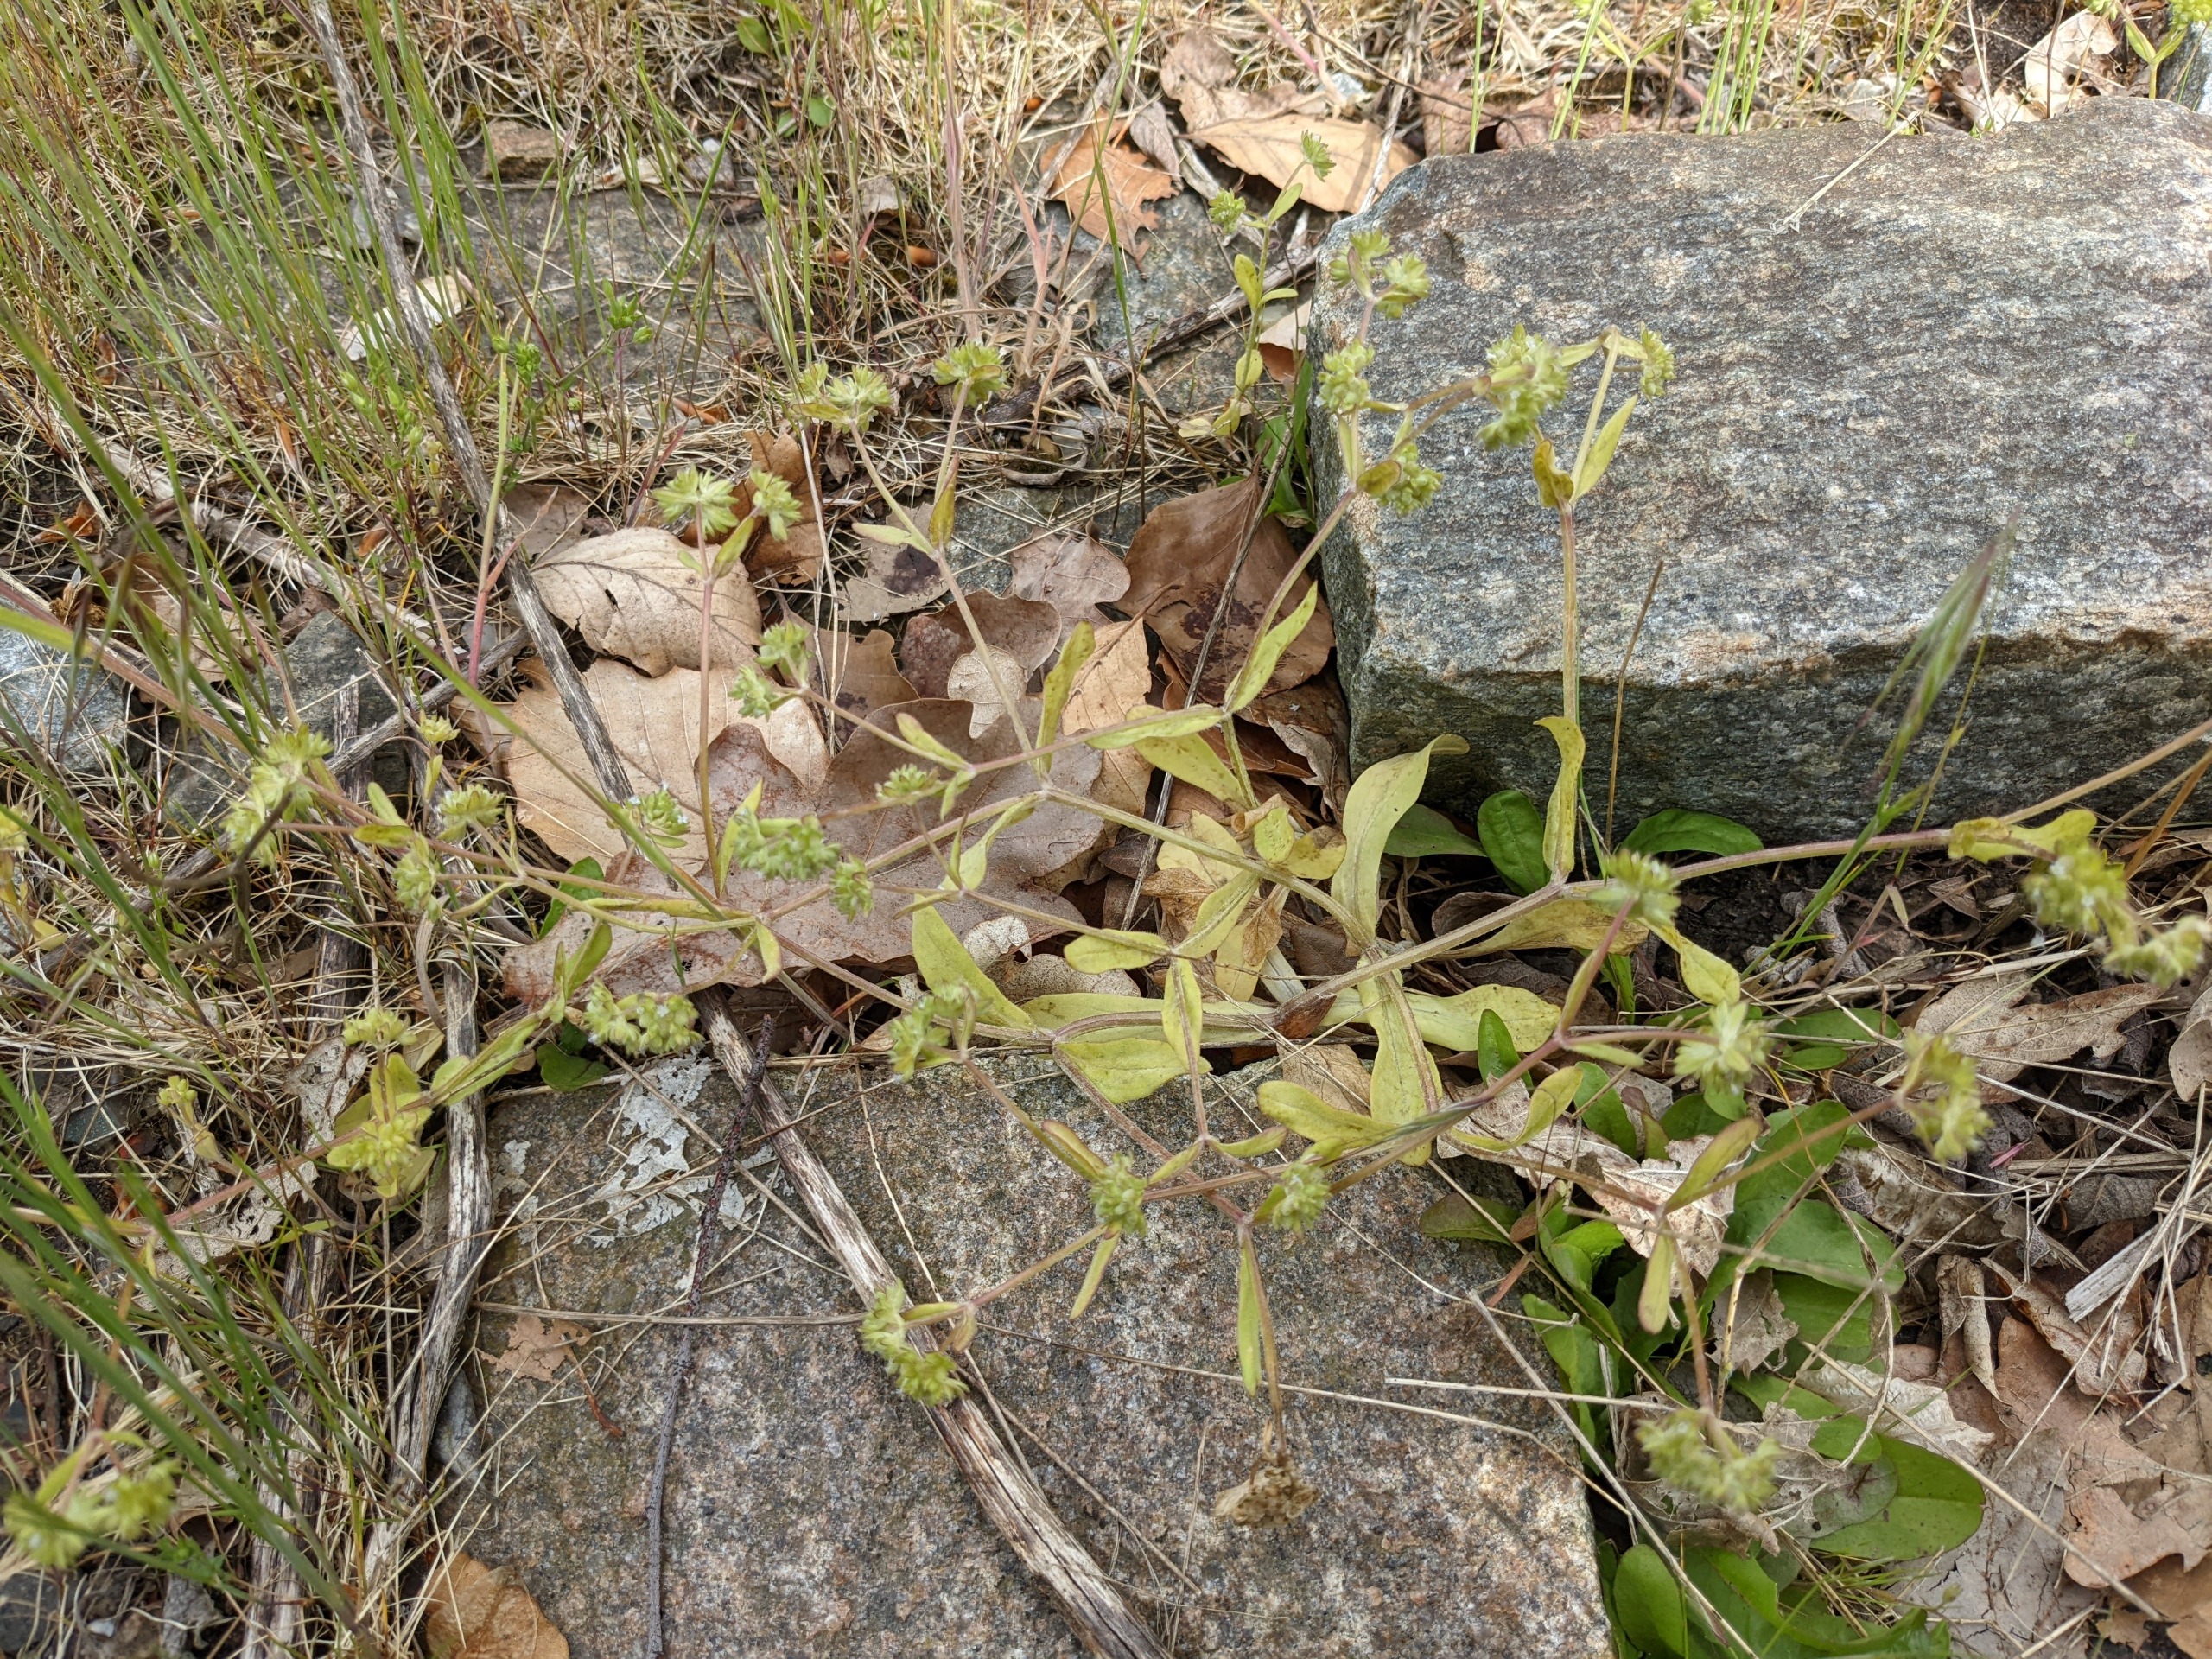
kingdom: Plantae
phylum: Tracheophyta
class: Magnoliopsida
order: Dipsacales
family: Caprifoliaceae
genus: Valerianella
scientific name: Valerianella locusta
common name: Tandfri vårsalat
